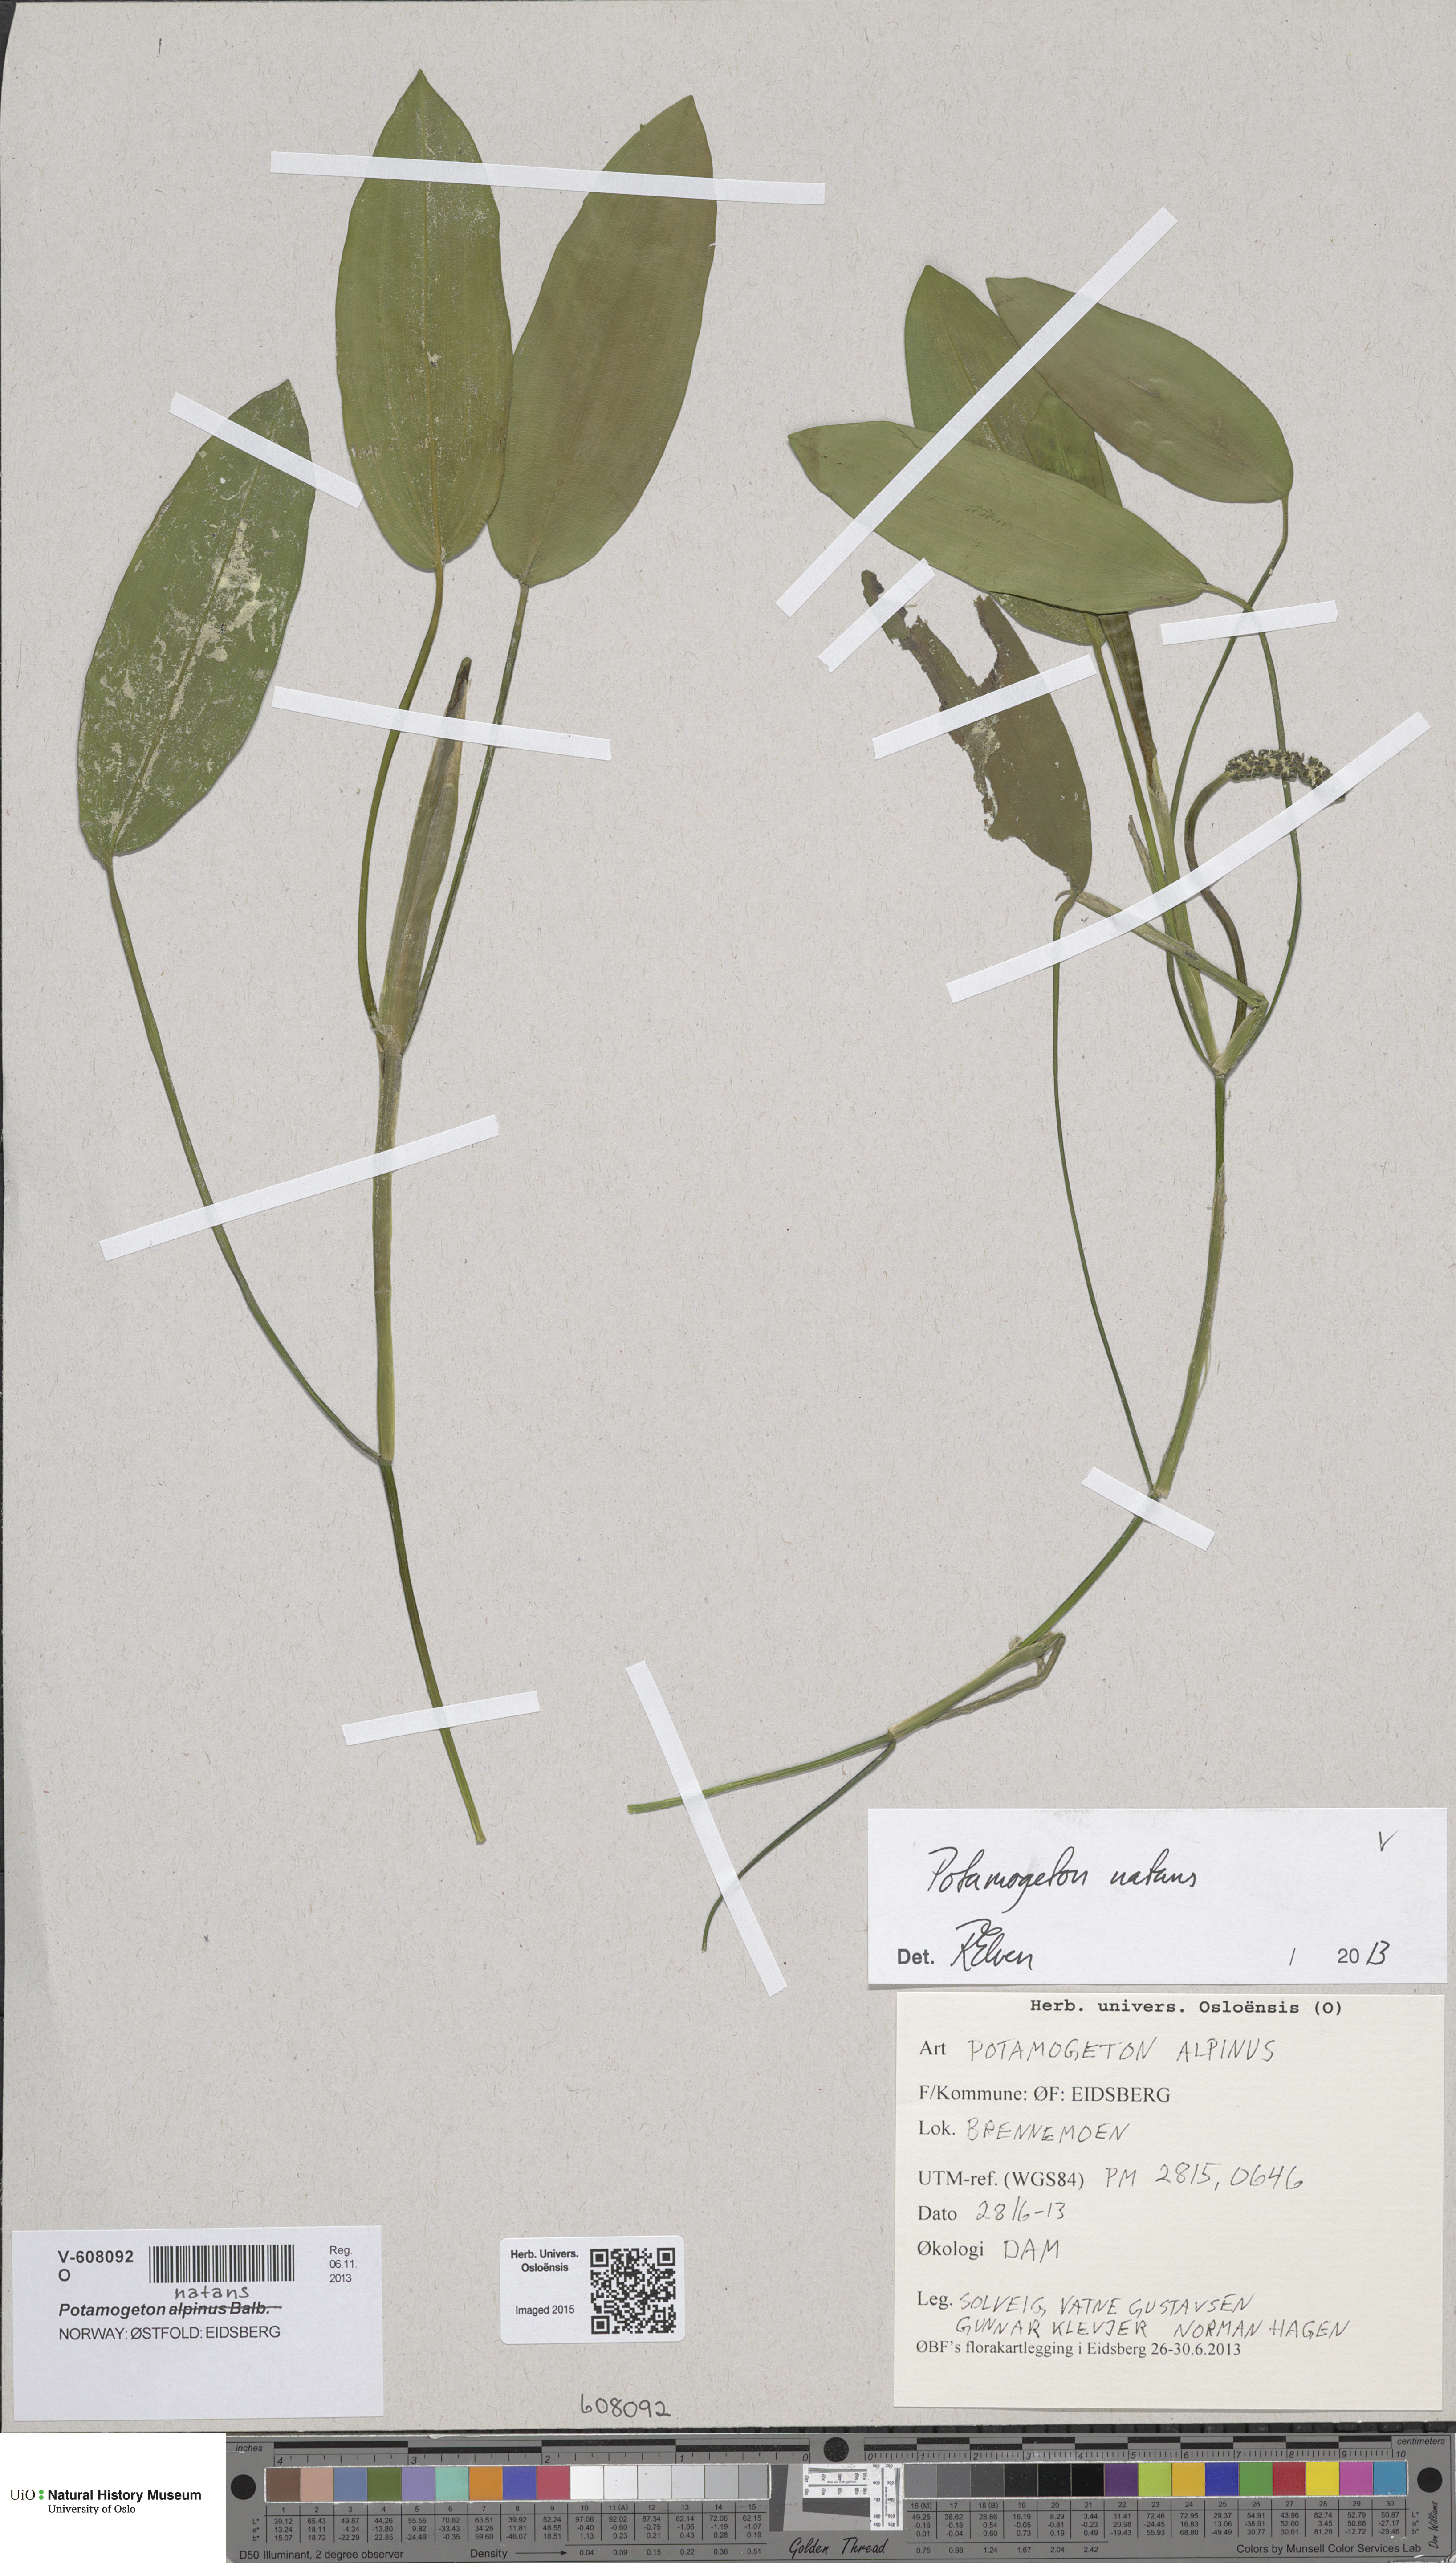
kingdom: Plantae
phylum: Tracheophyta
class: Liliopsida
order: Alismatales
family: Potamogetonaceae
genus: Potamogeton
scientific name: Potamogeton natans
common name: Broad-leaved pondweed
